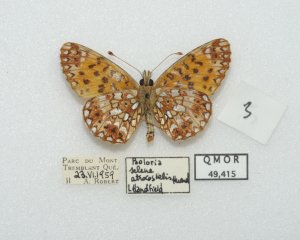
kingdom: Animalia
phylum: Arthropoda
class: Insecta
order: Lepidoptera
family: Nymphalidae
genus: Boloria
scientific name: Boloria selene
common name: Silver-bordered Fritillary
